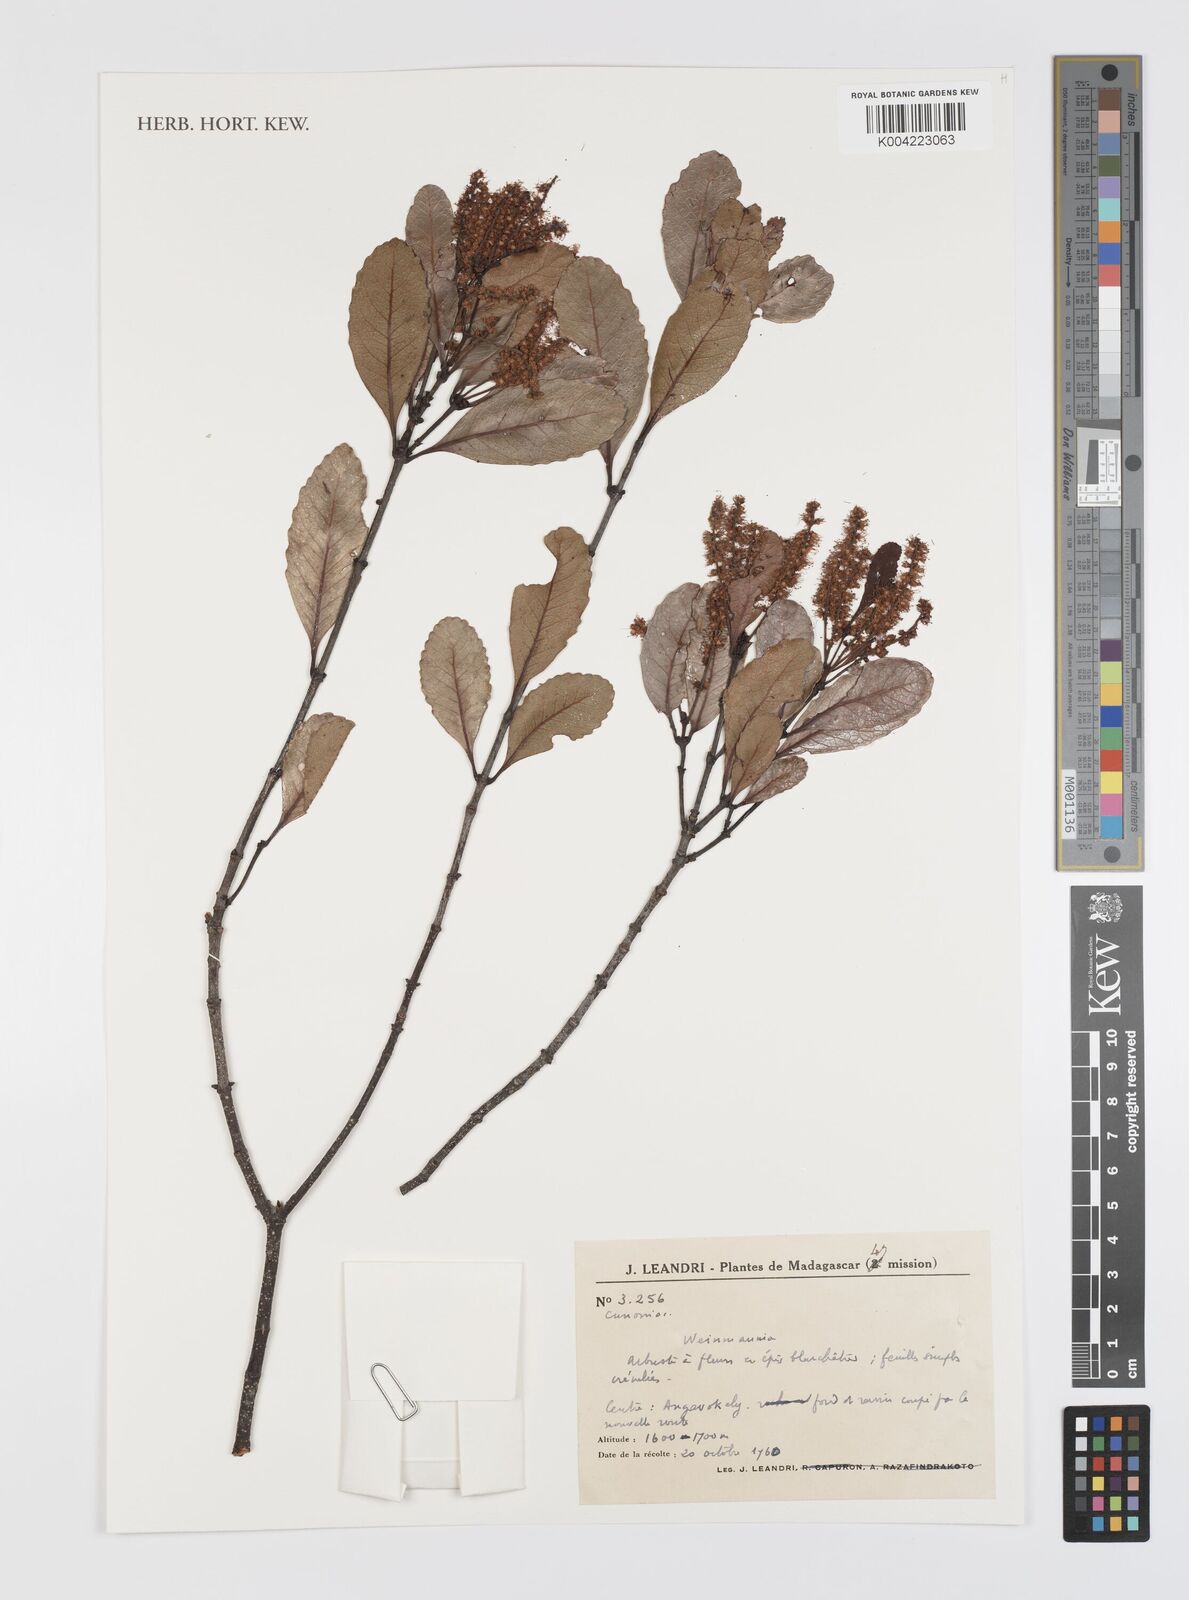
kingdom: Plantae
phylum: Tracheophyta
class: Magnoliopsida
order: Oxalidales
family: Cunoniaceae
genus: Weinmannia
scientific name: Weinmannia
